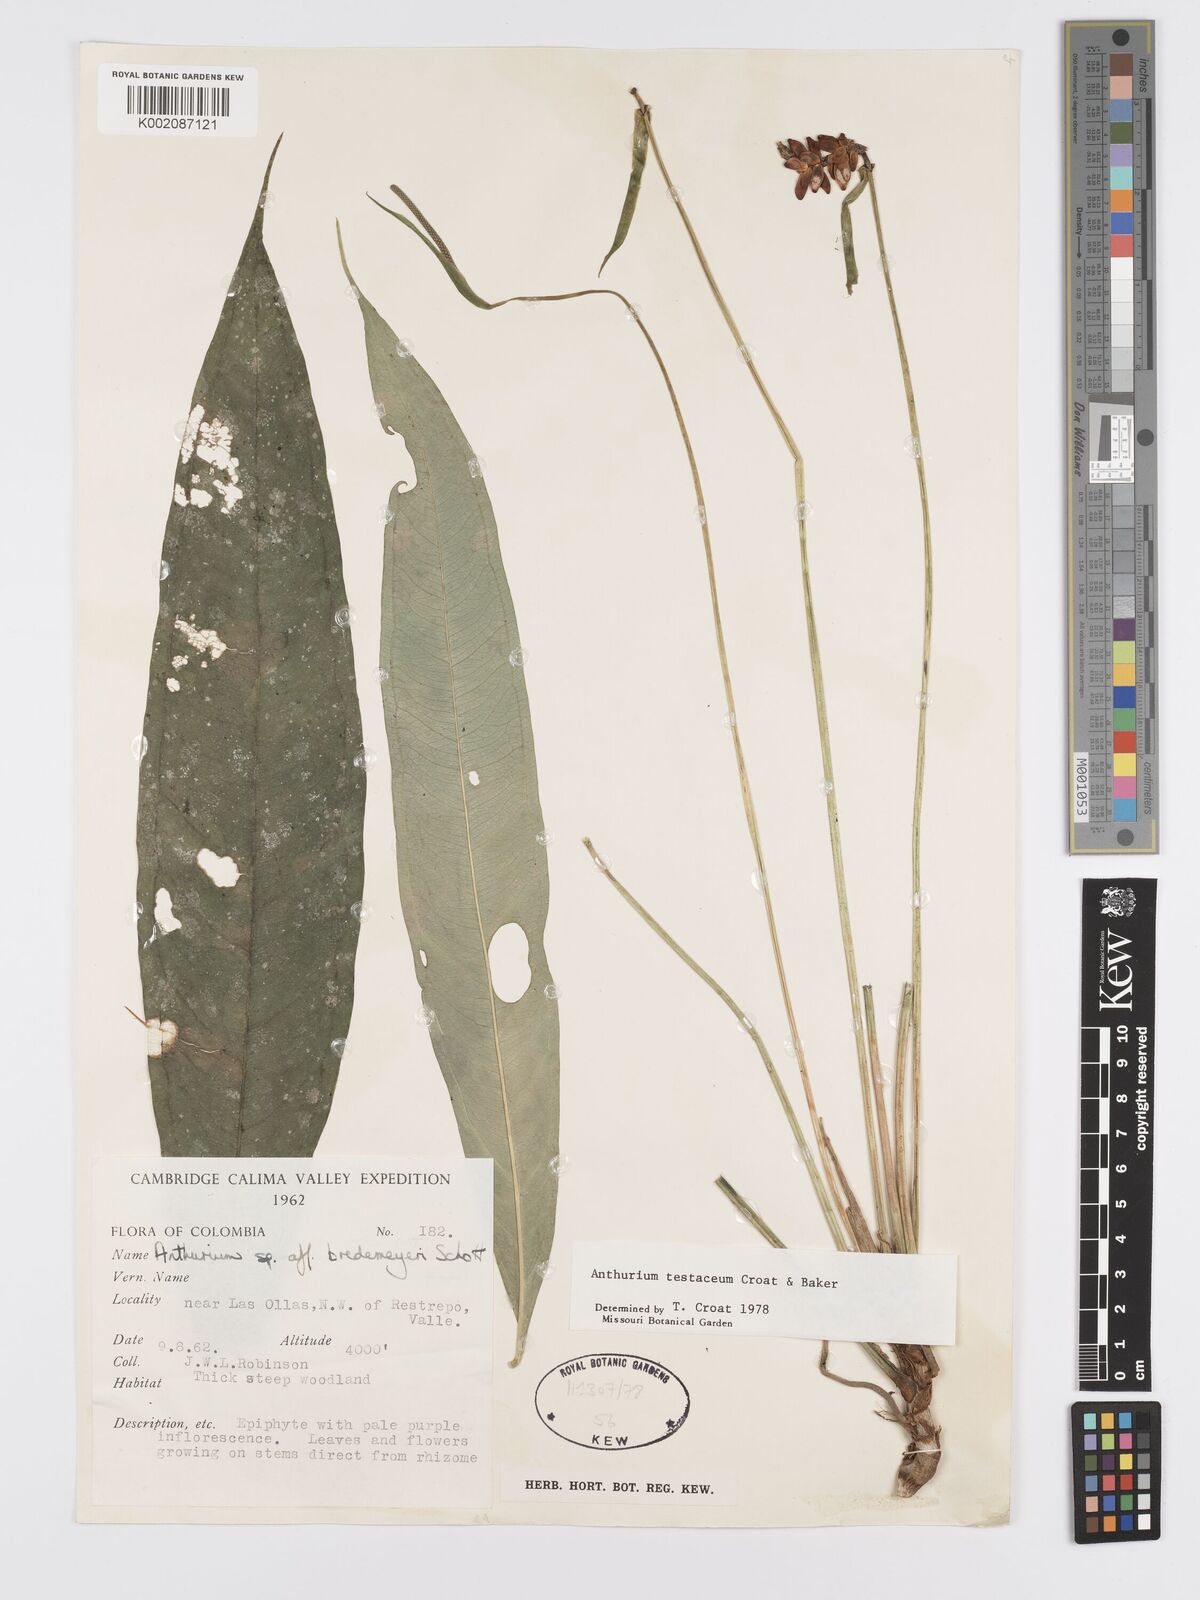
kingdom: Plantae
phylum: Tracheophyta
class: Liliopsida
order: Alismatales
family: Araceae
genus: Anthurium
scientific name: Anthurium testaceum
